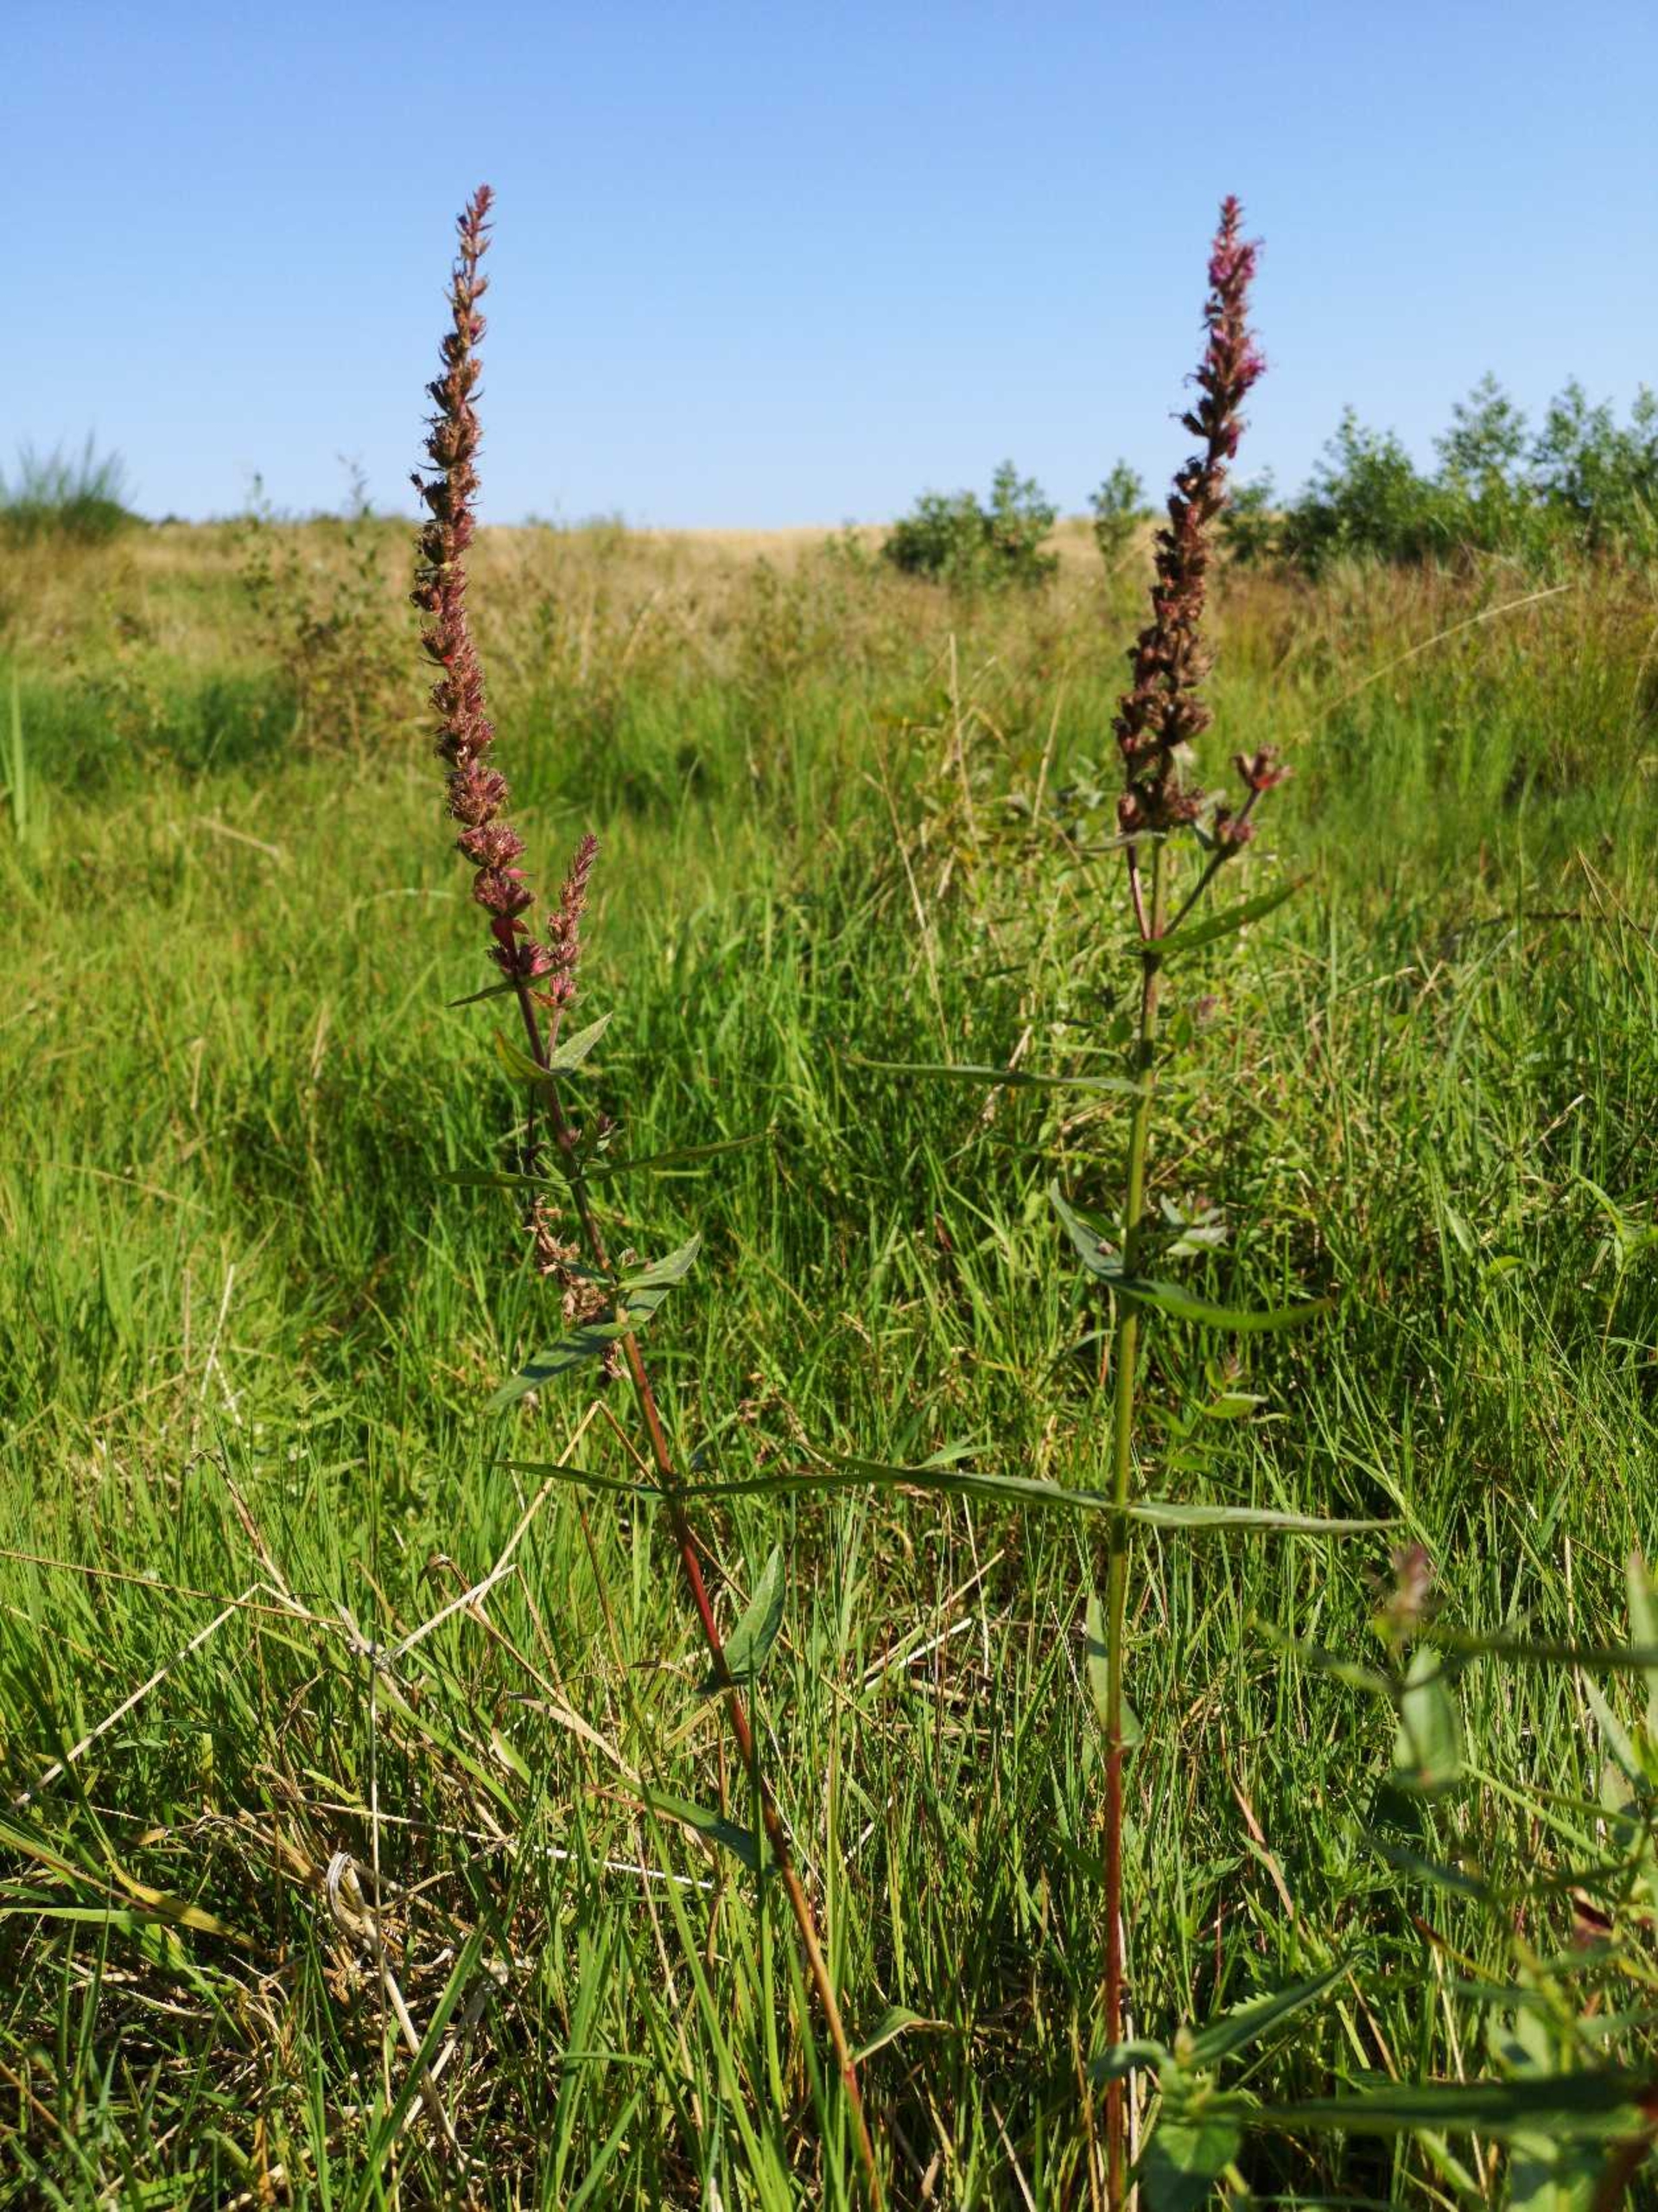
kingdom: Plantae
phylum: Tracheophyta
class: Magnoliopsida
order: Myrtales
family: Lythraceae
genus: Lythrum
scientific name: Lythrum salicaria
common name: Kattehale
